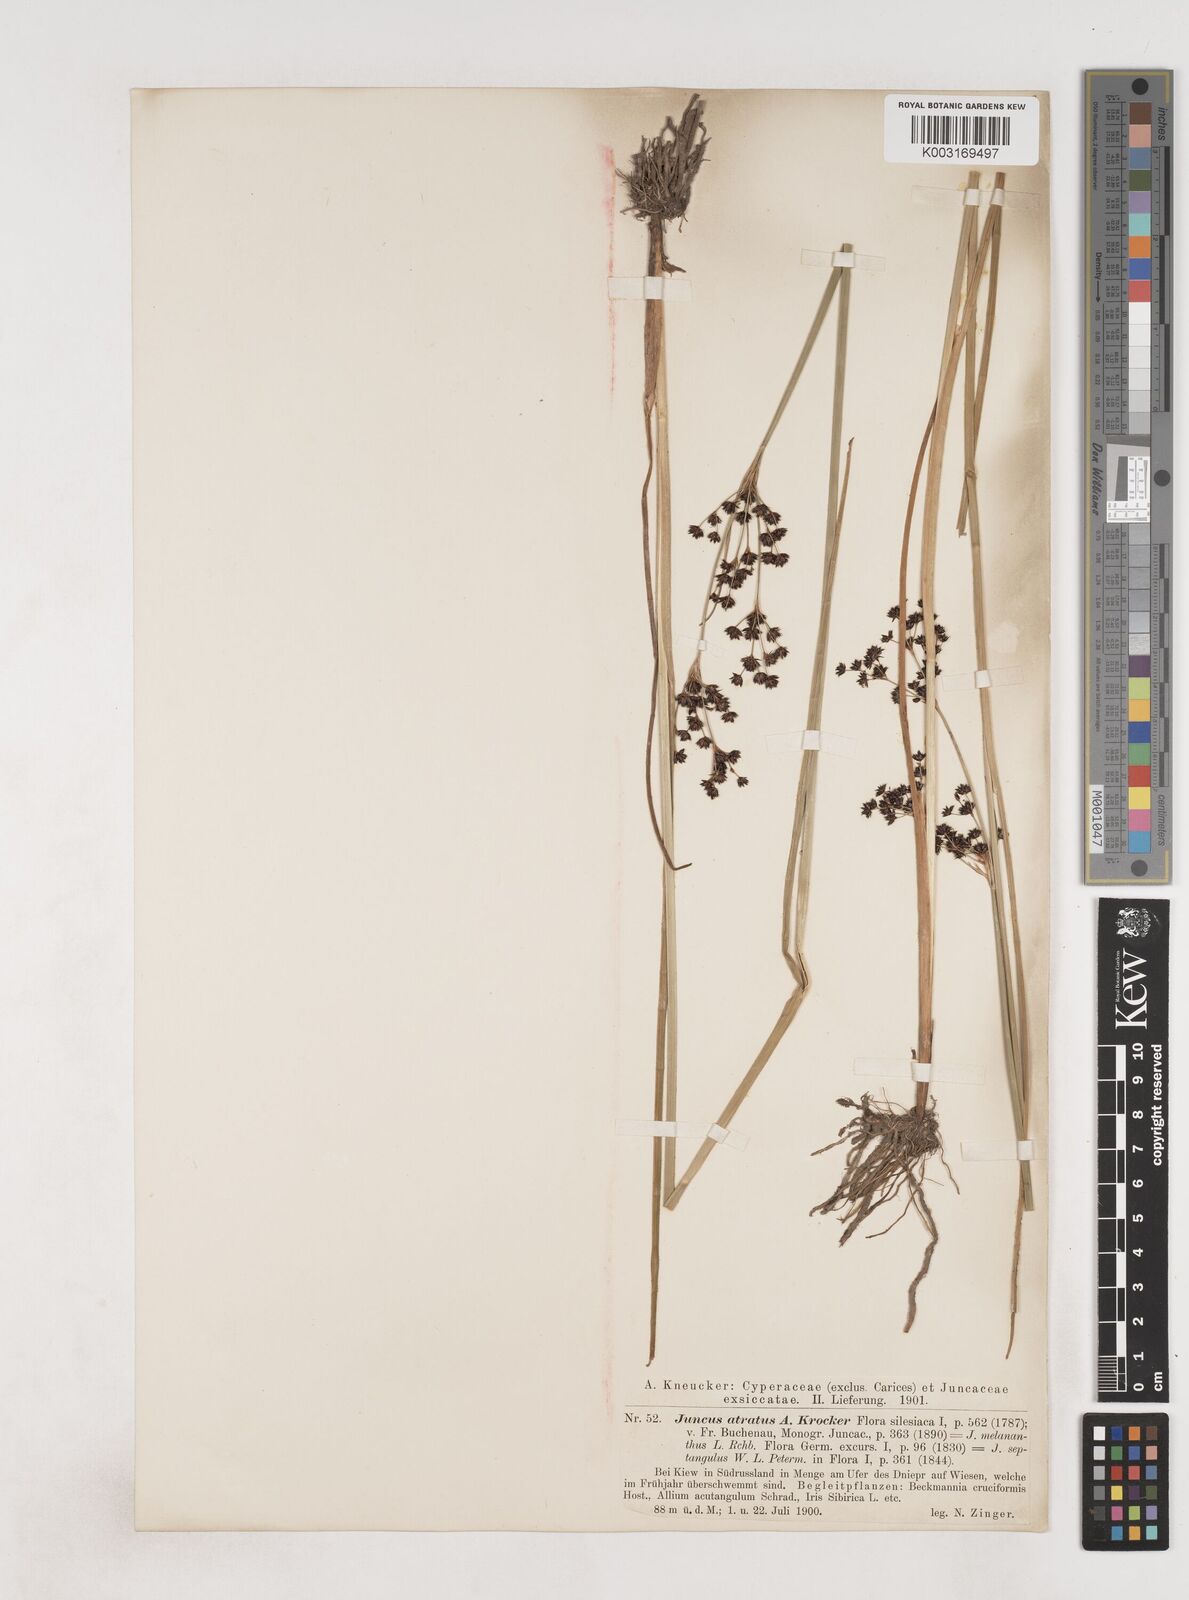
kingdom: Plantae
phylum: Tracheophyta
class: Liliopsida
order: Poales
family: Juncaceae
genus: Juncus
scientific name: Juncus atratus
